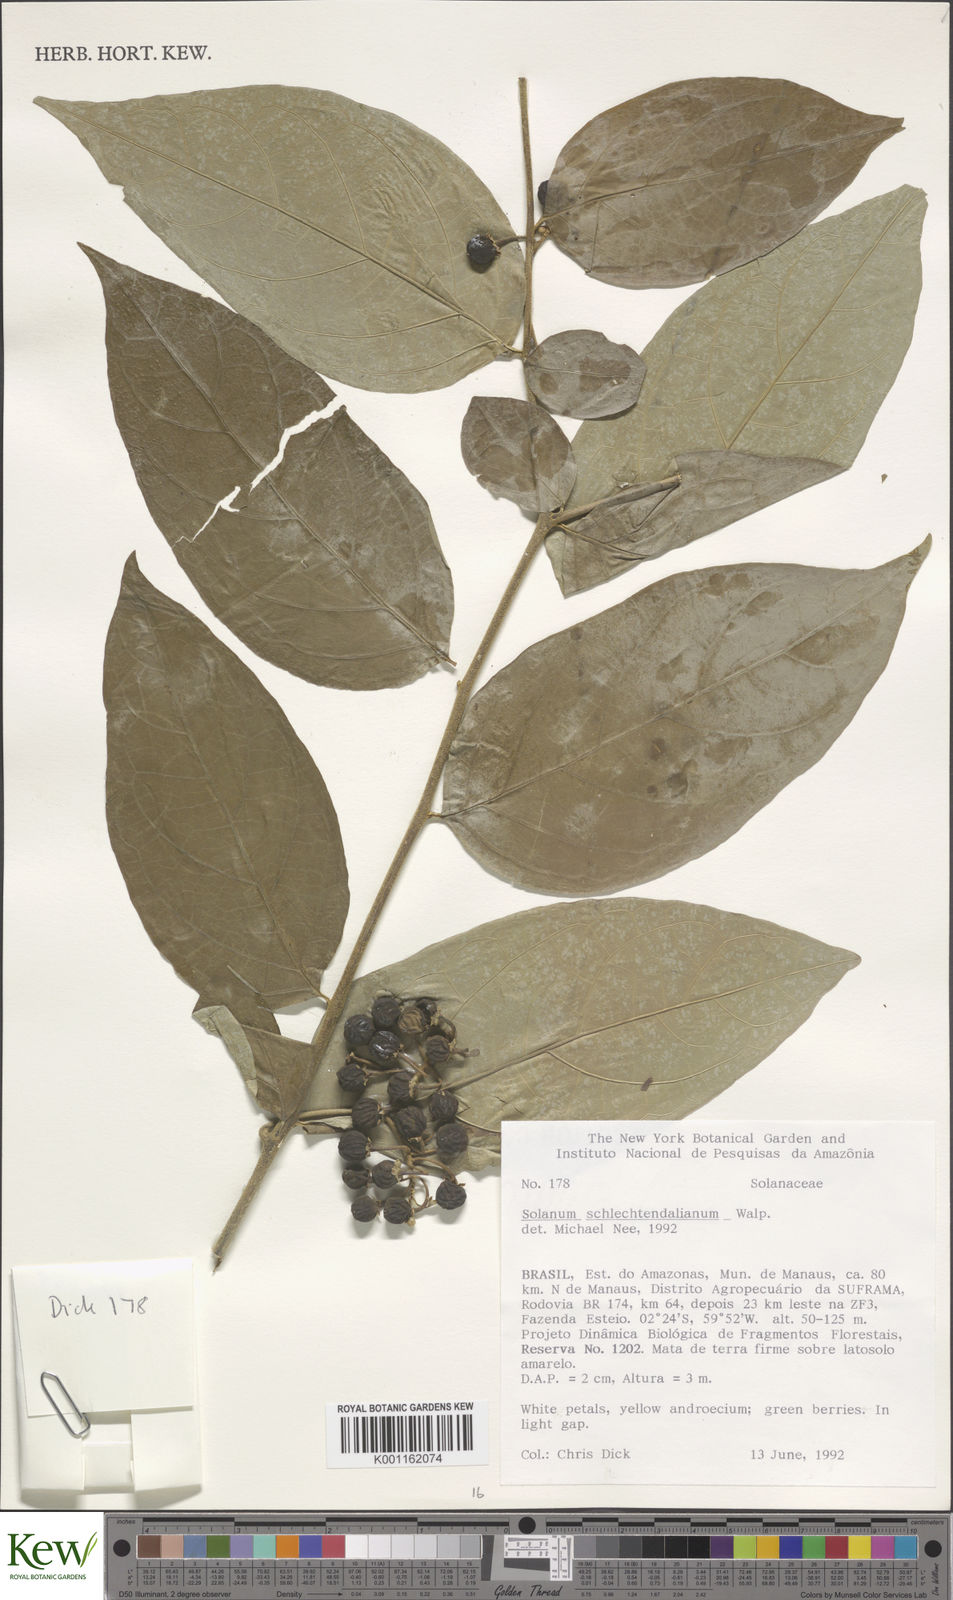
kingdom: Plantae
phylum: Tracheophyta
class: Magnoliopsida
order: Solanales
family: Solanaceae
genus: Solanum
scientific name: Solanum schlechtendalianum
